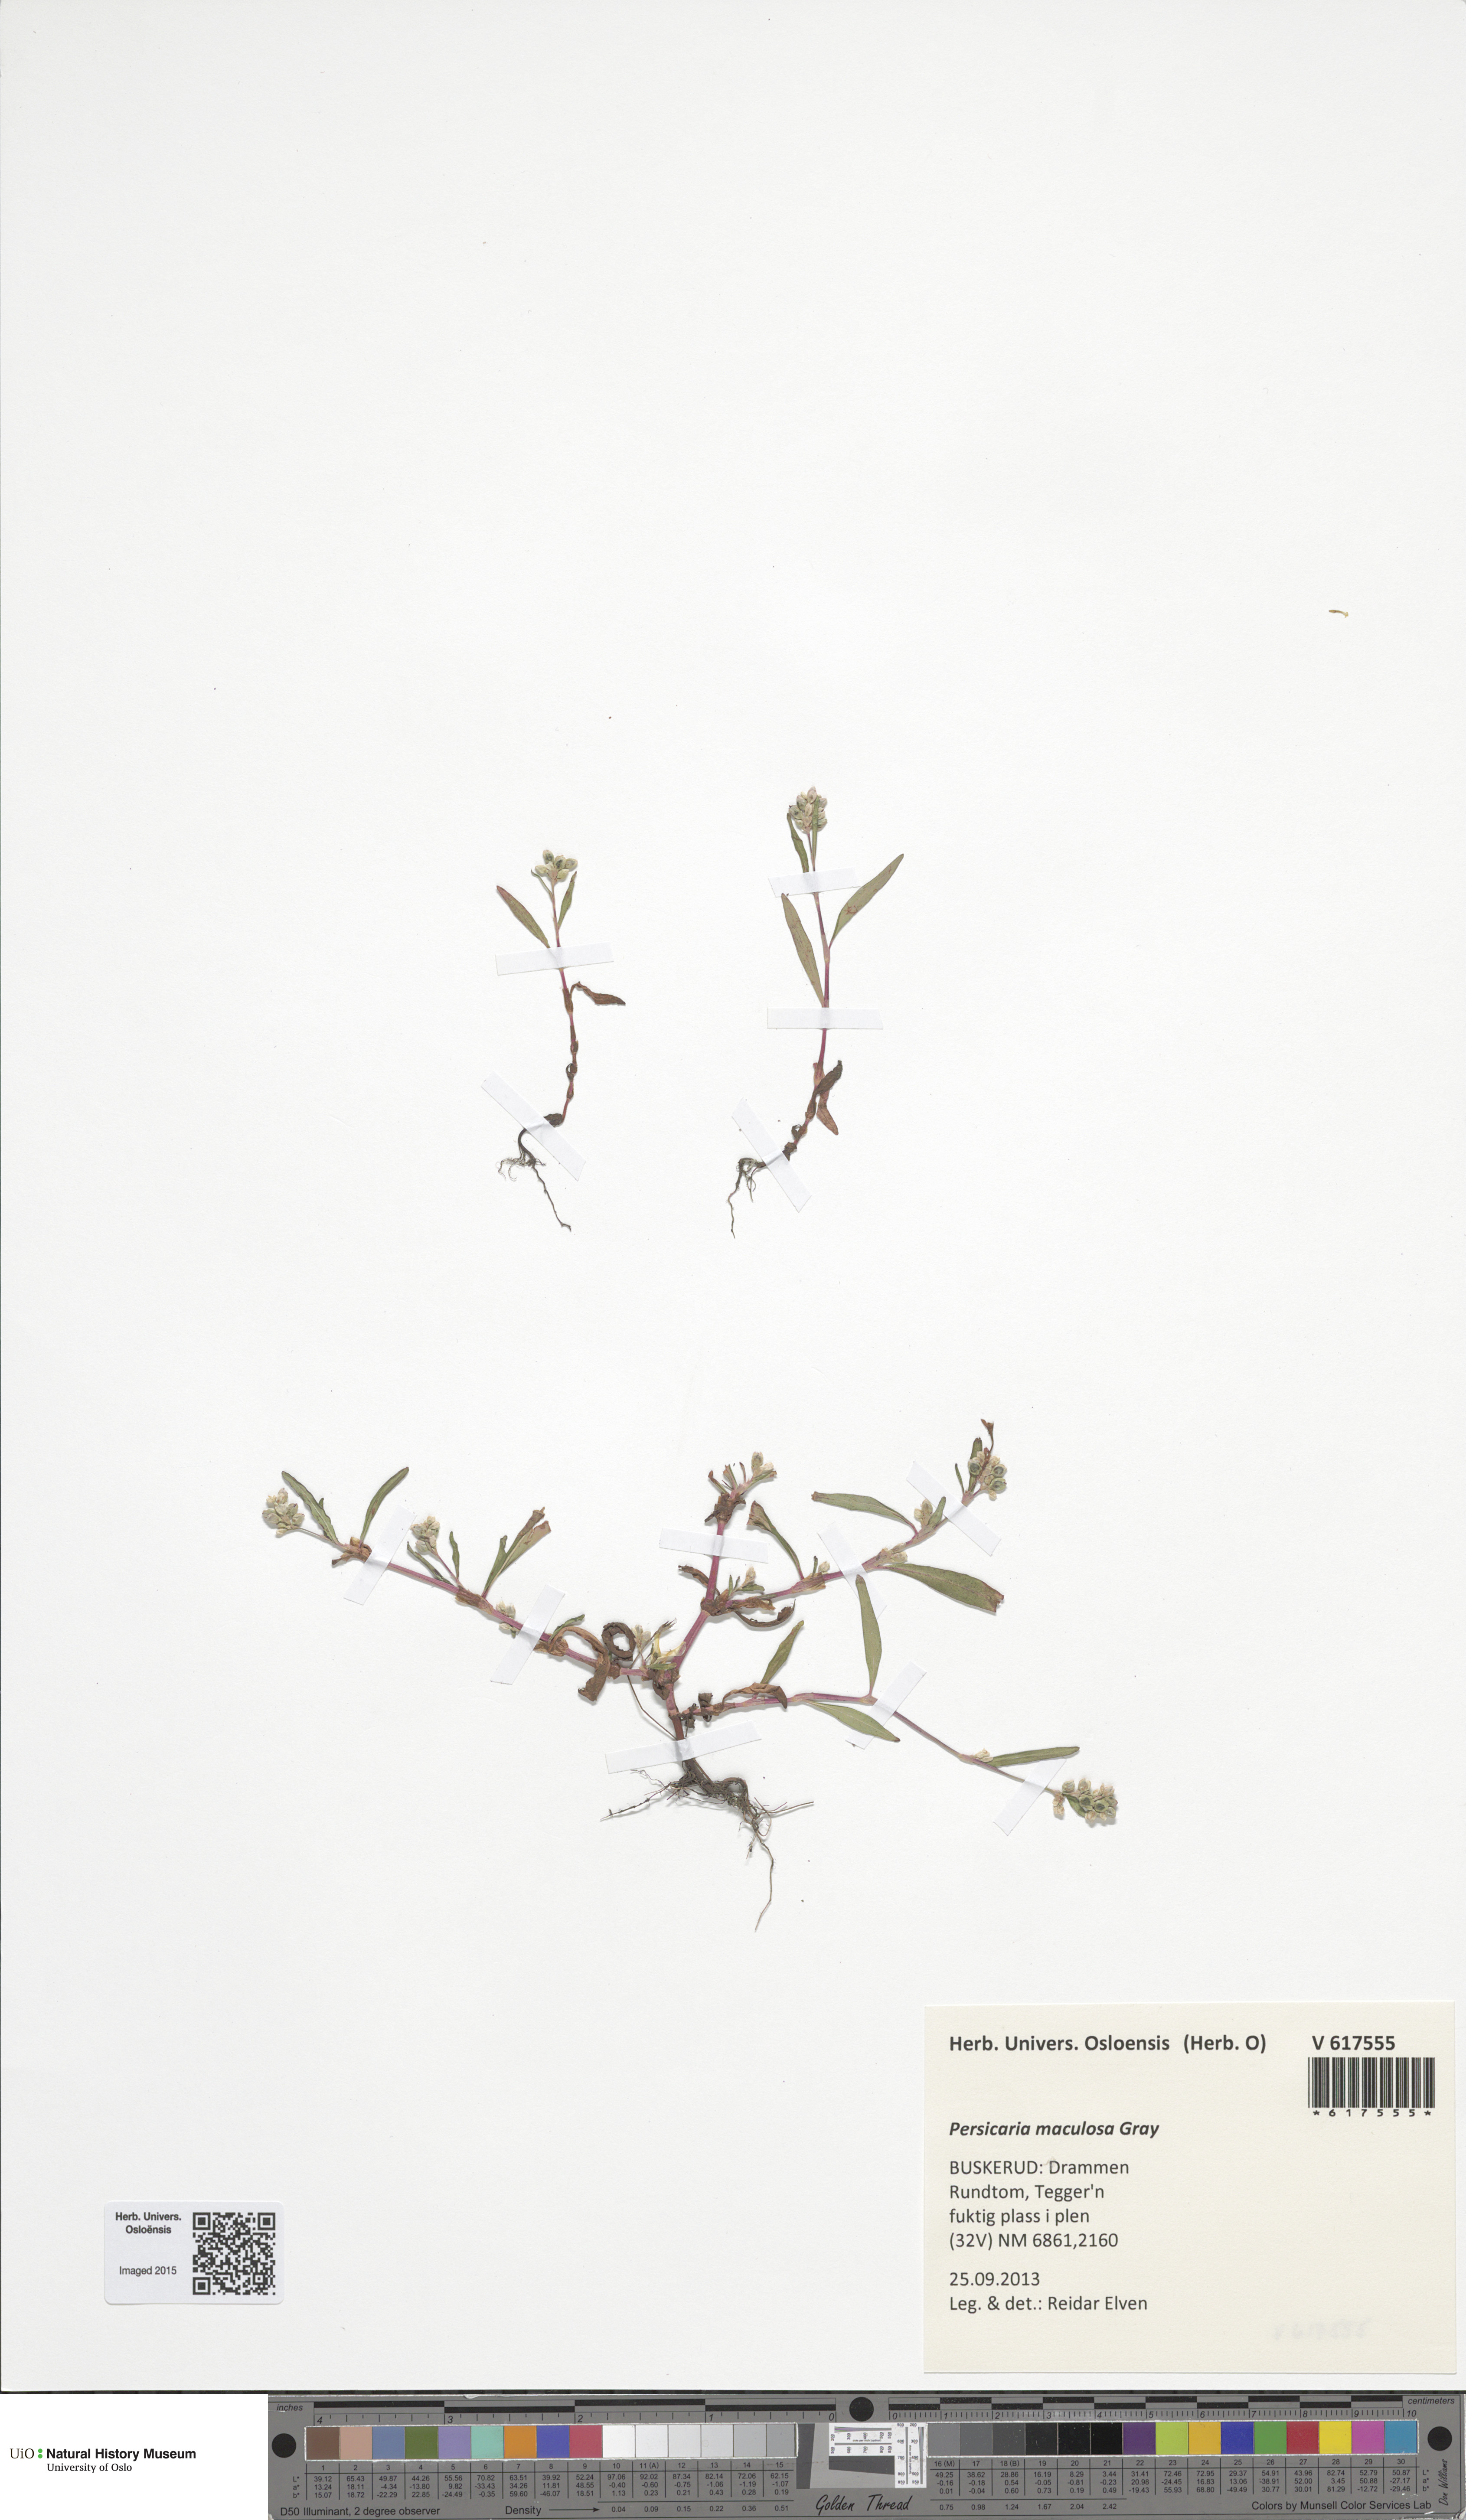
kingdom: Plantae
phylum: Tracheophyta
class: Magnoliopsida
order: Caryophyllales
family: Polygonaceae
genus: Persicaria
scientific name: Persicaria maculosa
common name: Redshank
